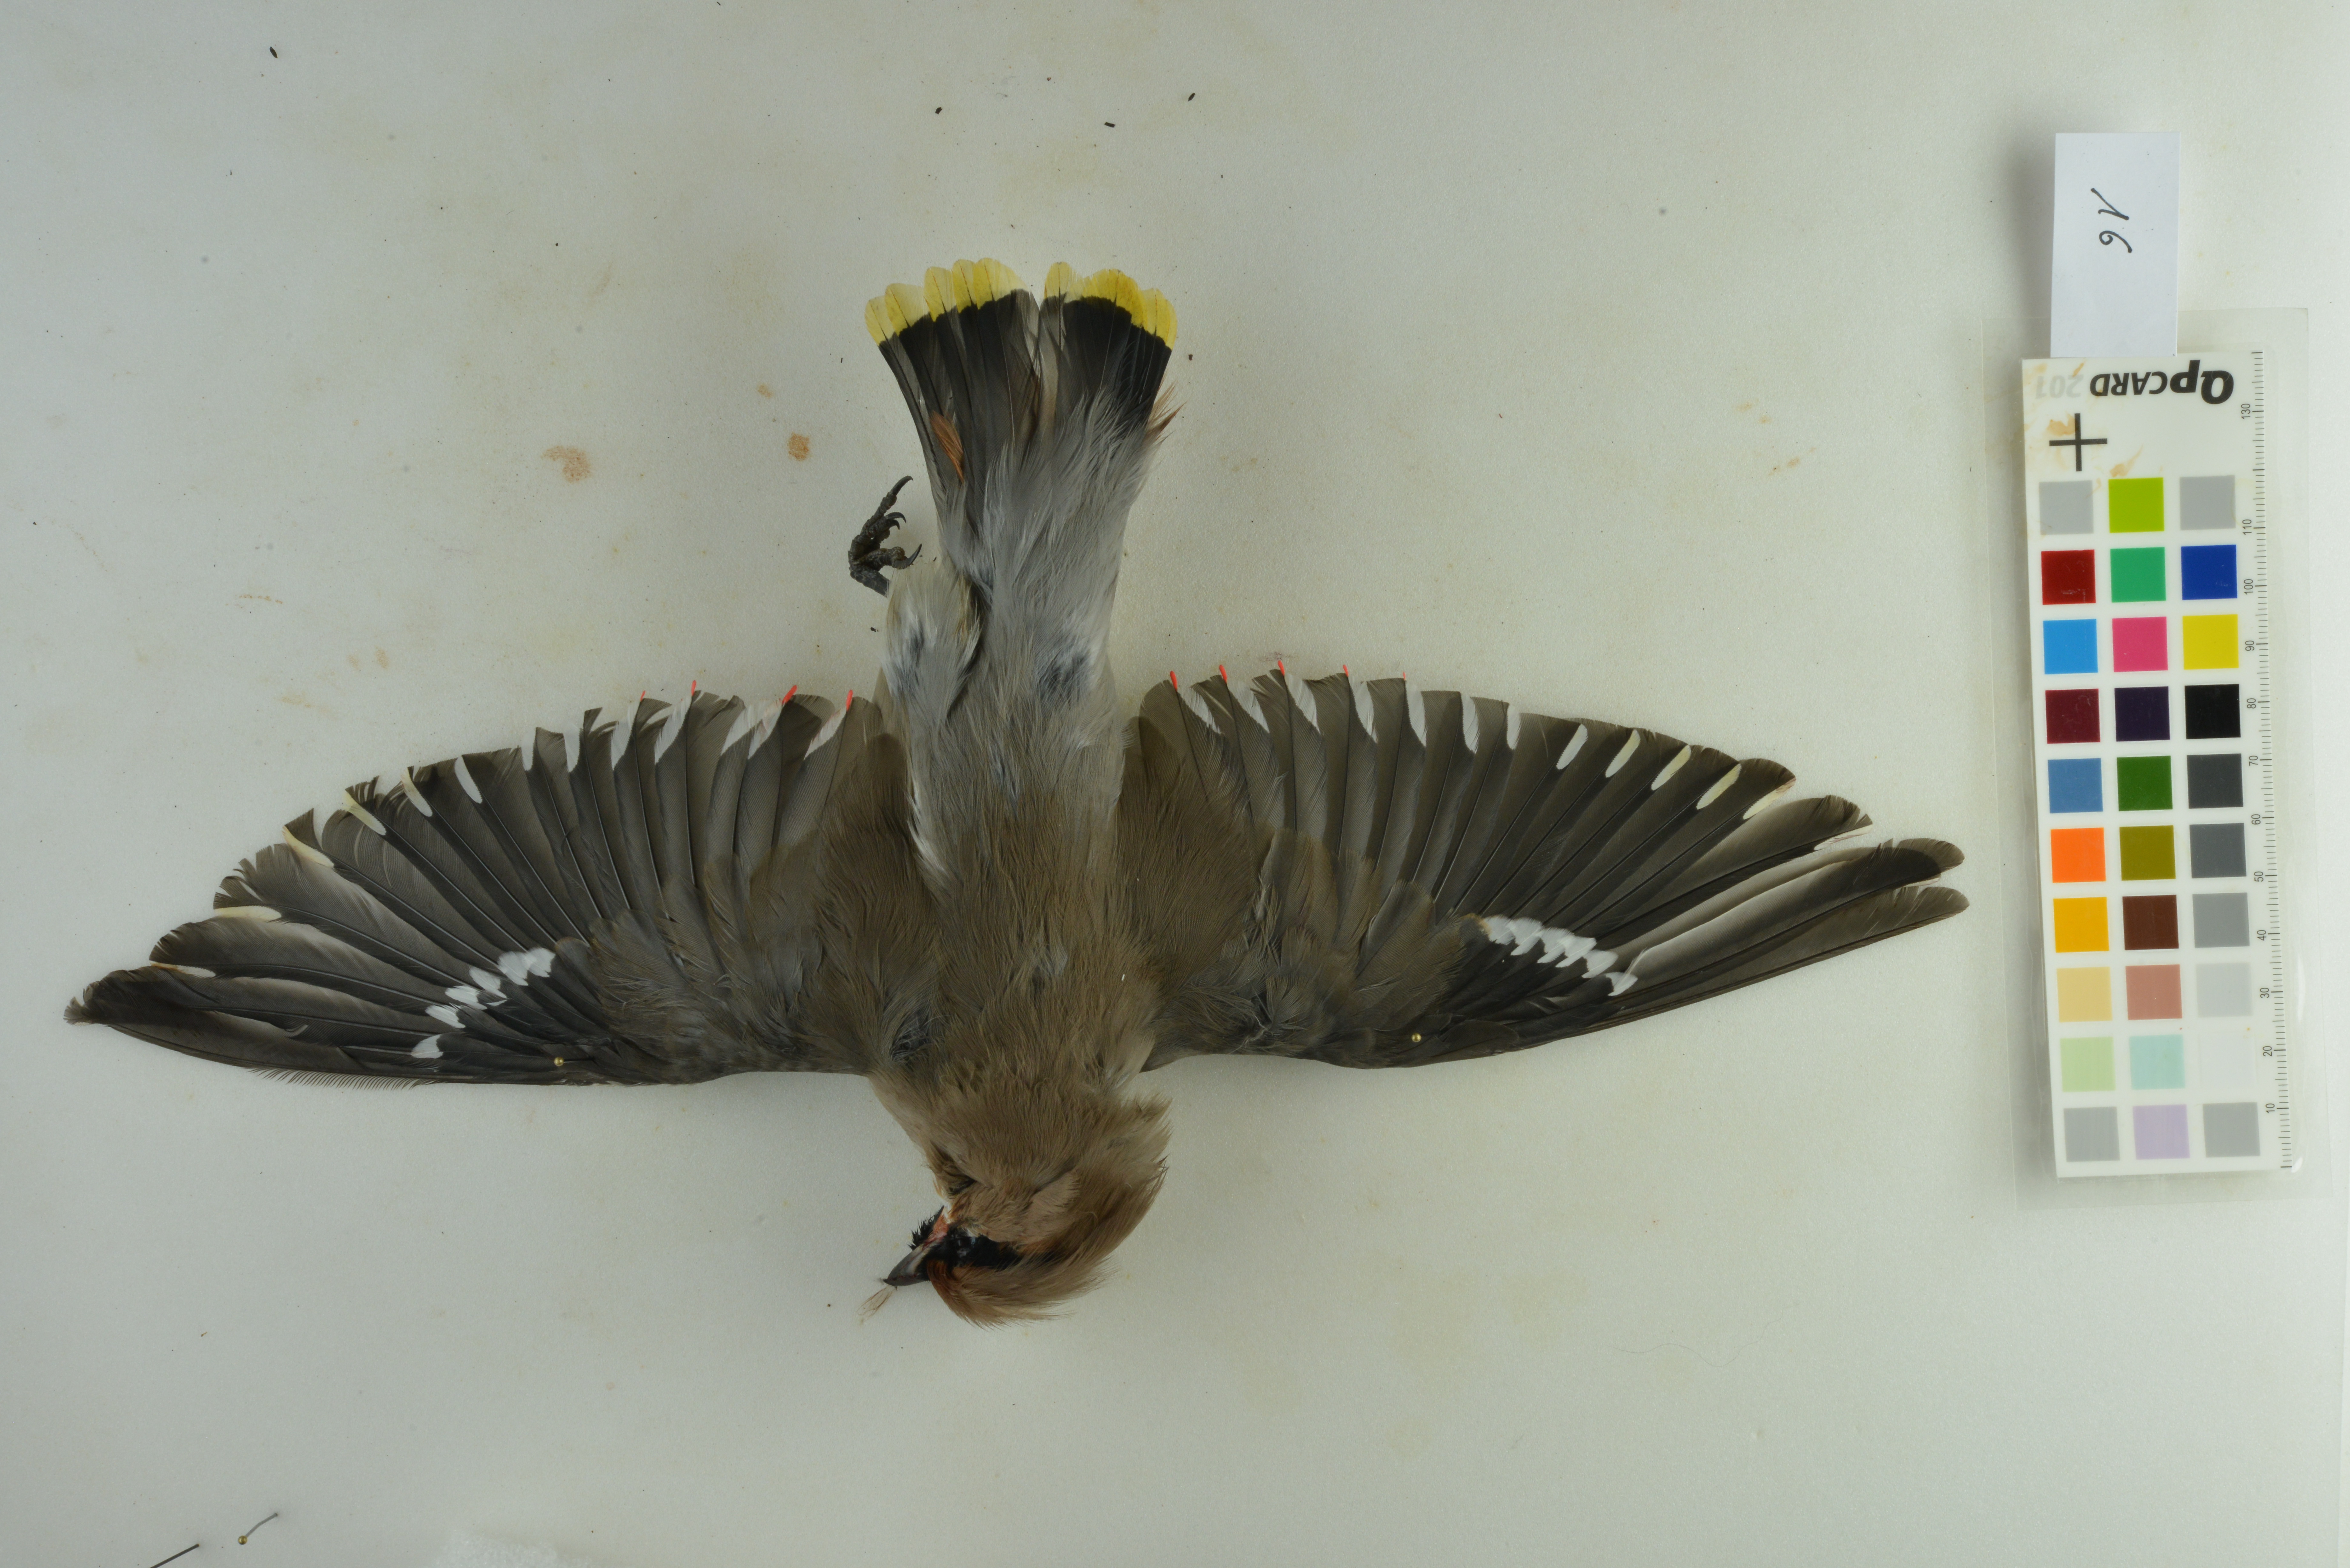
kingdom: Animalia
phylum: Chordata
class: Aves
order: Passeriformes
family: Bombycillidae
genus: Bombycilla
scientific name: Bombycilla garrulus
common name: Bohemian waxwing
